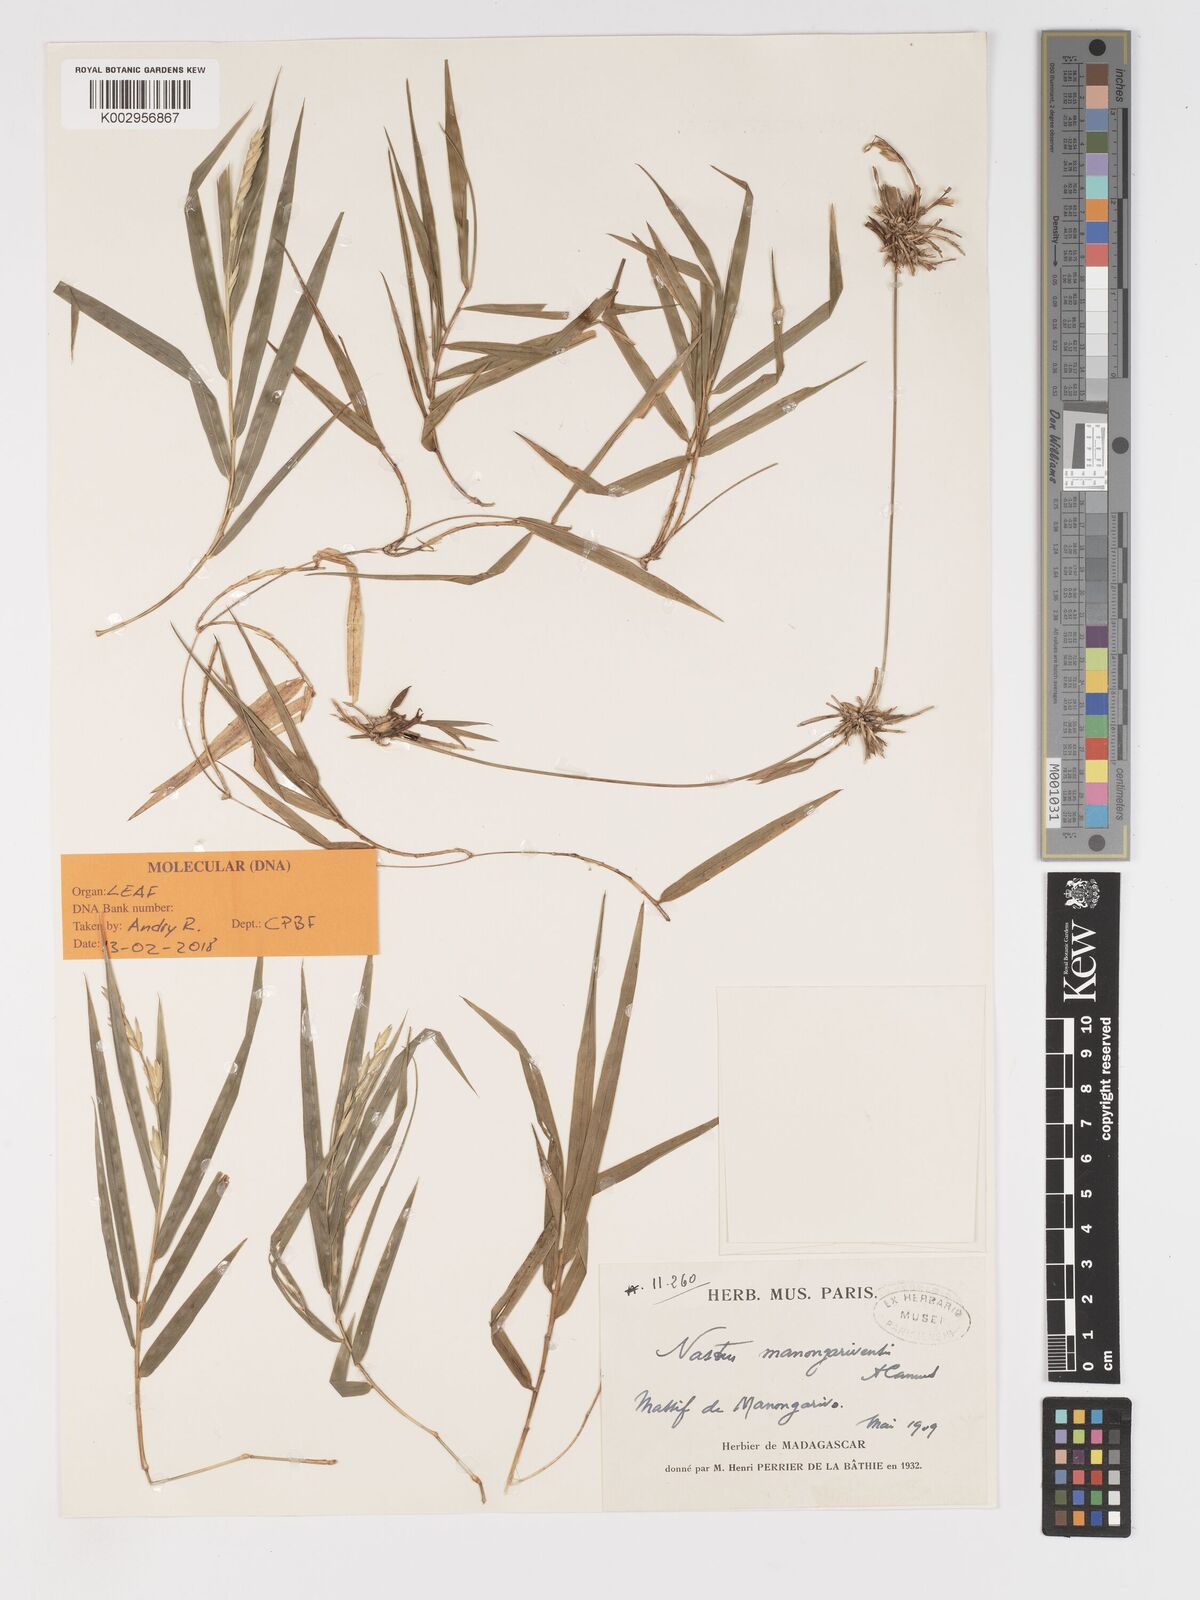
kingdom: Plantae
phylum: Tracheophyta
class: Liliopsida
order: Poales
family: Poaceae
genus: Nastus
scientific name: Nastus madagascariensis
